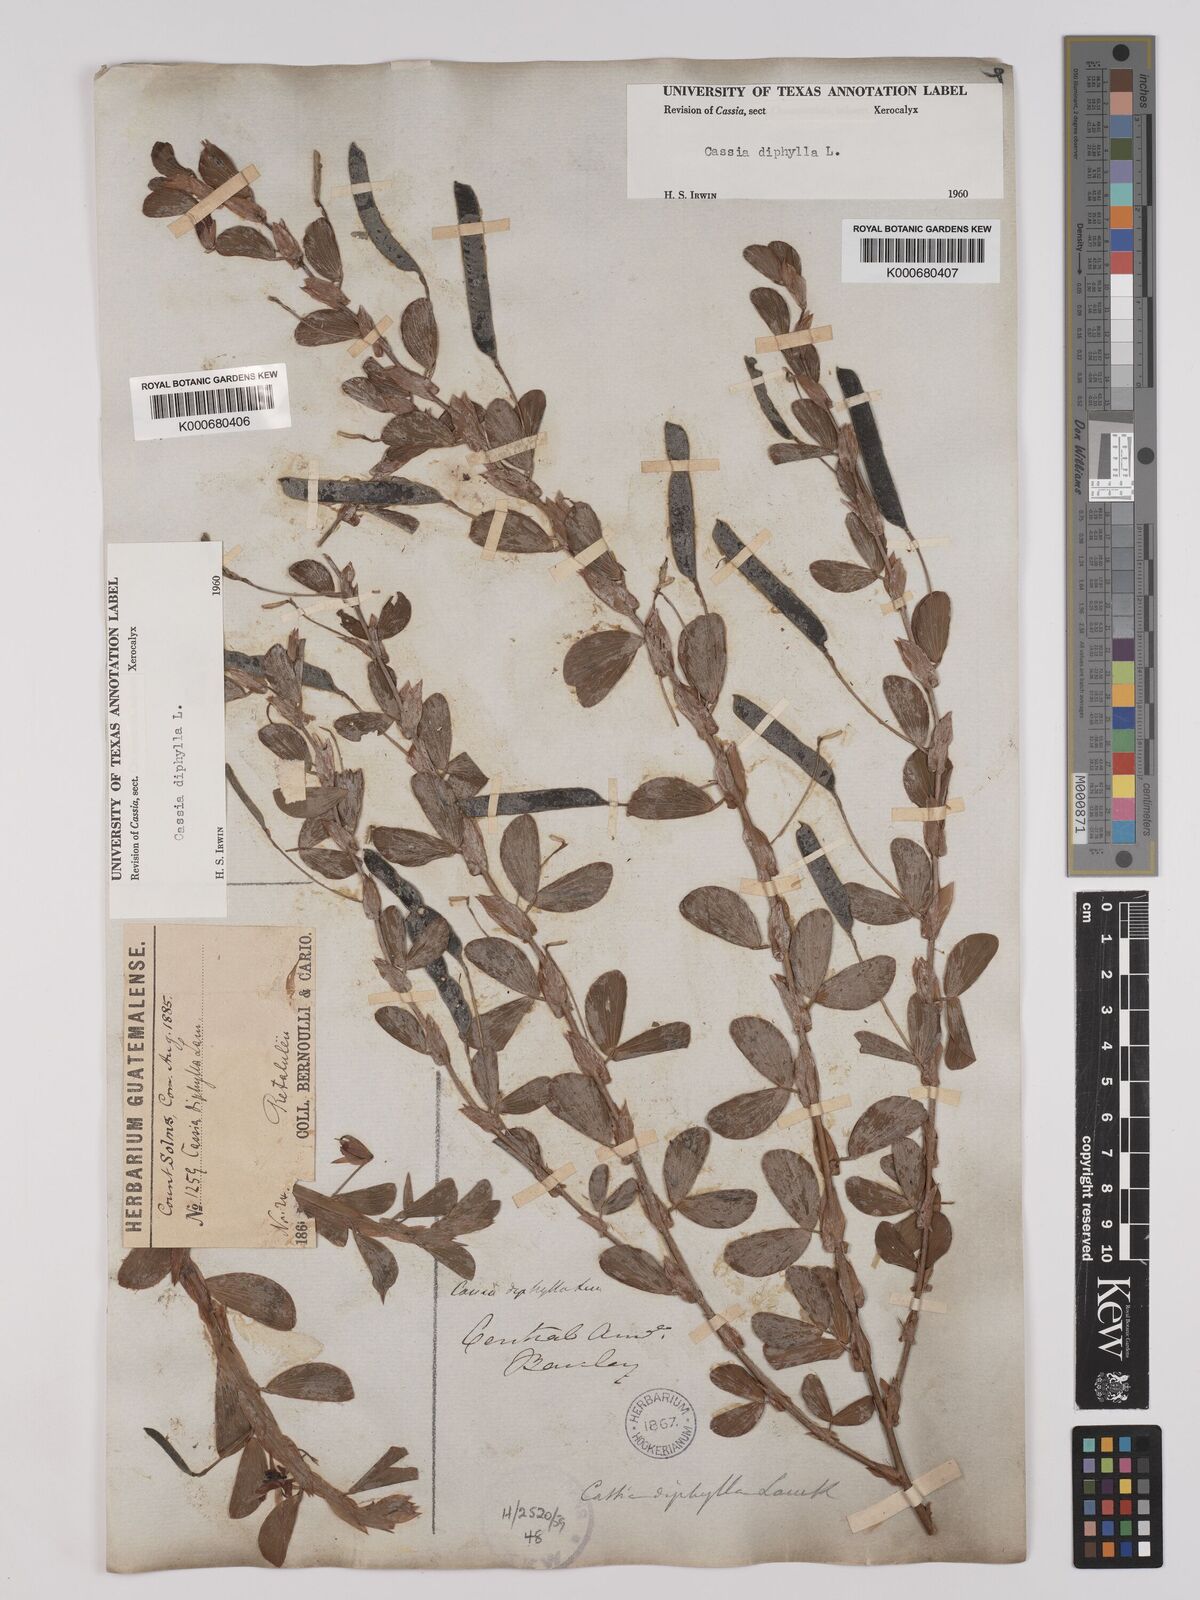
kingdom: Plantae
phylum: Tracheophyta
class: Magnoliopsida
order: Fabales
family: Fabaceae
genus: Chamaecrista
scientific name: Chamaecrista diphylla
